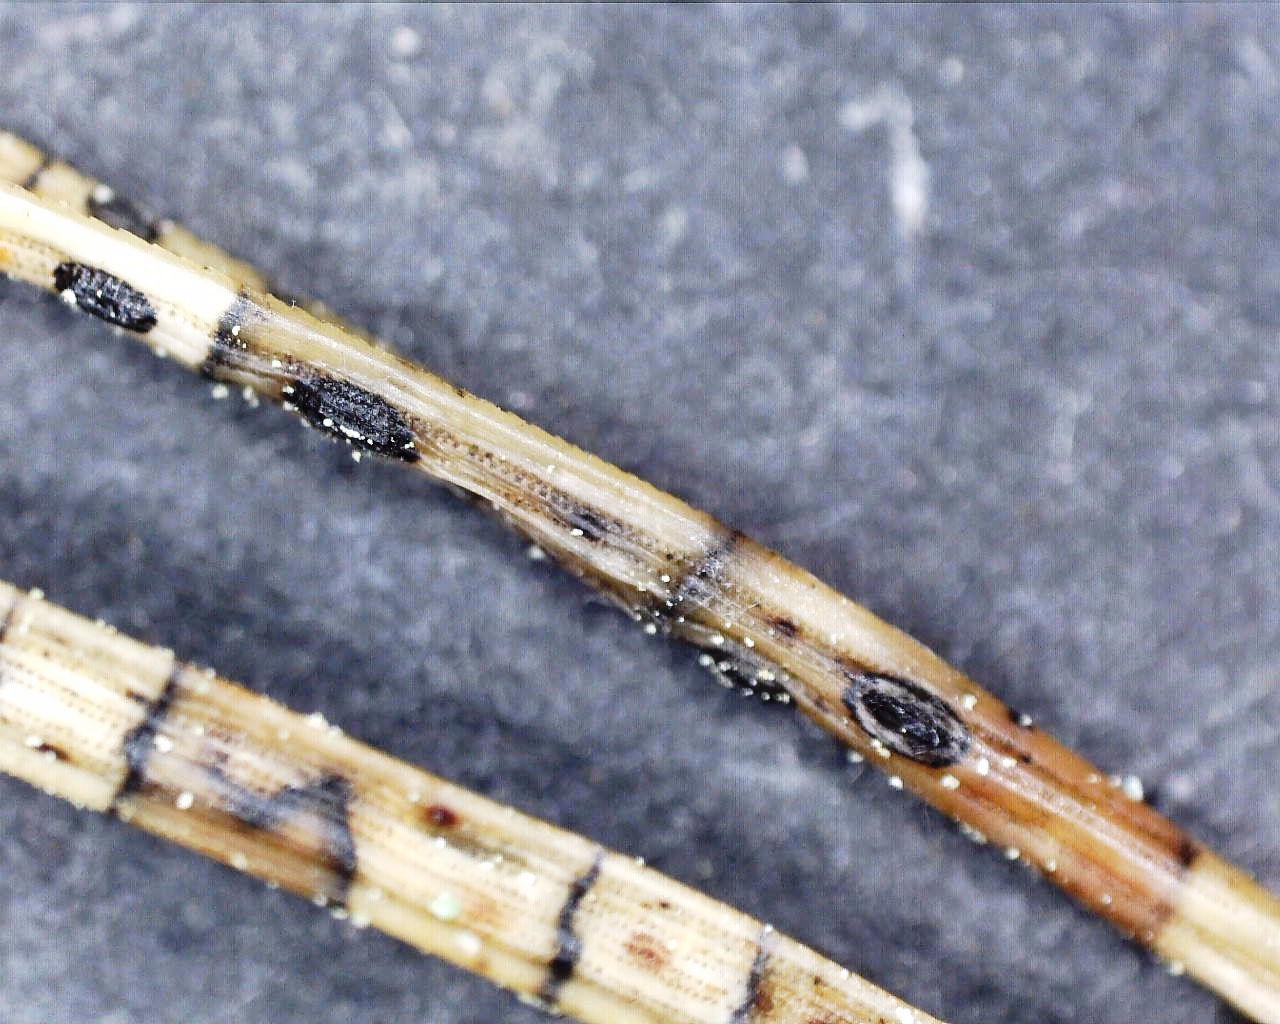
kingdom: Fungi
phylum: Ascomycota
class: Leotiomycetes
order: Rhytismatales
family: Rhytismataceae
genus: Lophodermium
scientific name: Lophodermium pinastri
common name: fyrre-fureplet
